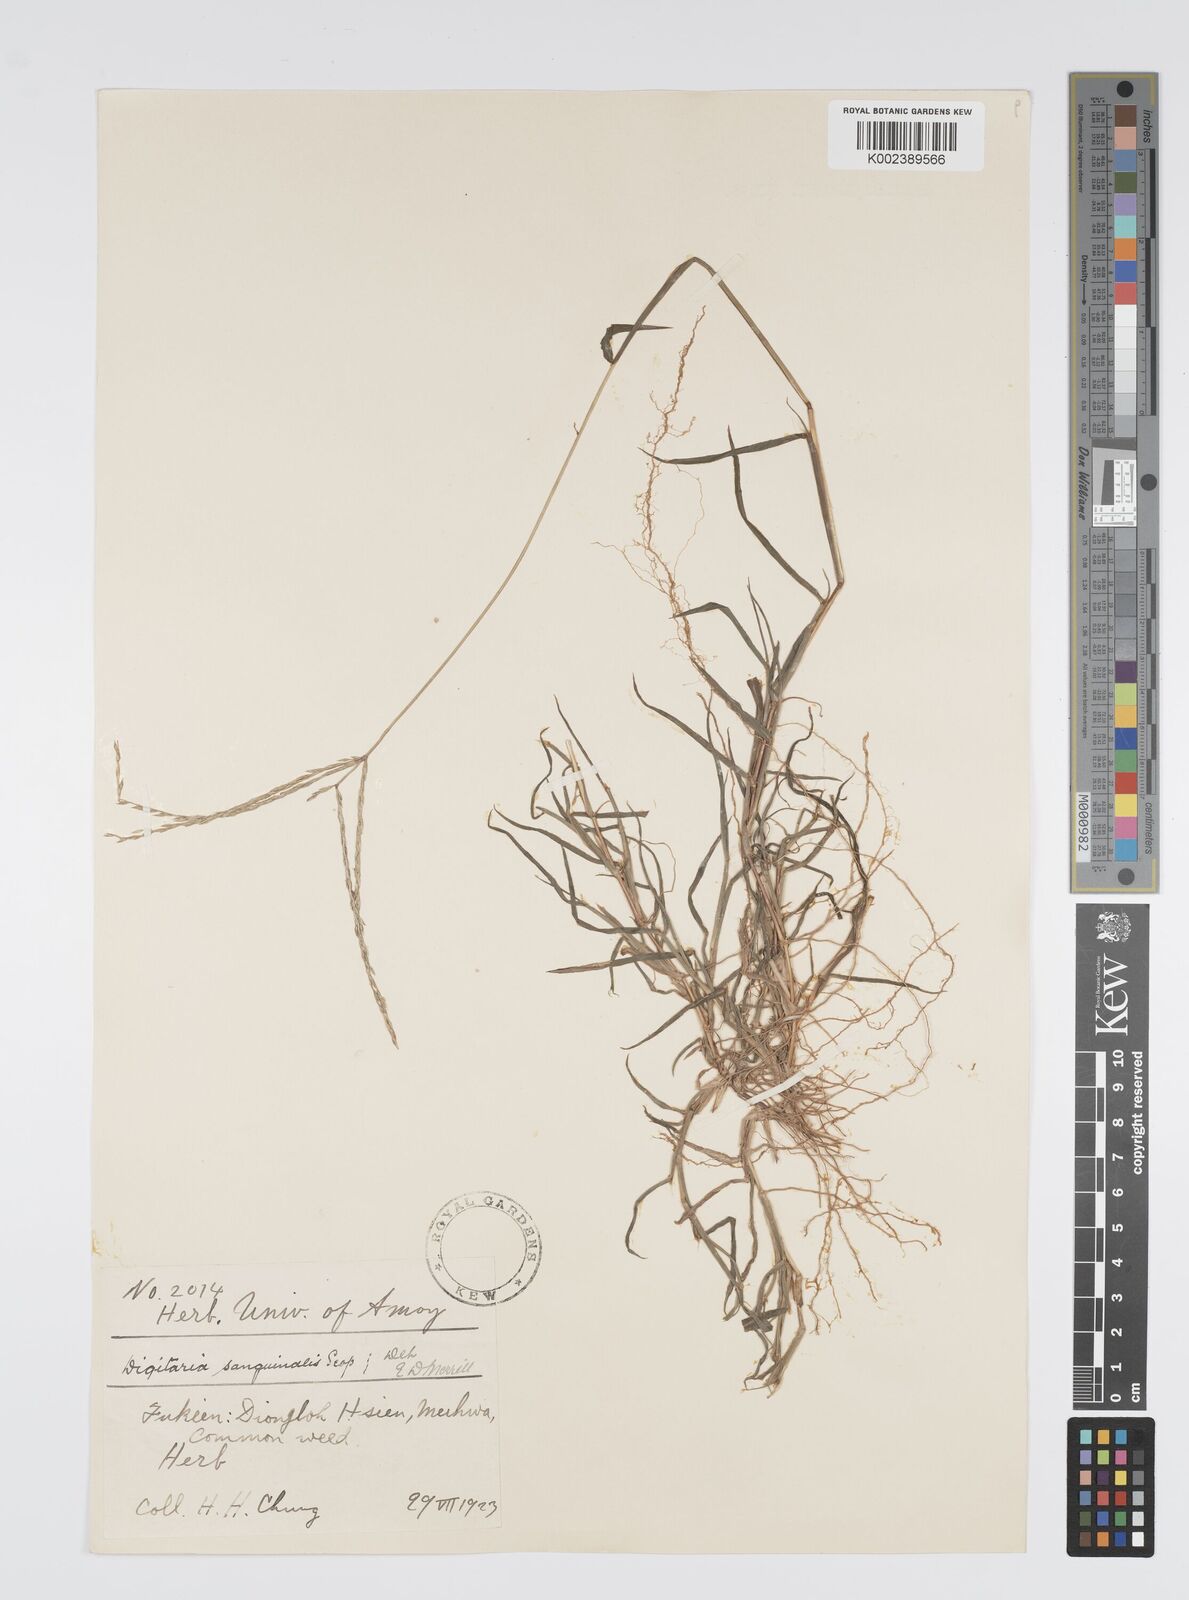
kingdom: Plantae
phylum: Tracheophyta
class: Liliopsida
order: Poales
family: Poaceae
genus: Digitaria
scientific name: Digitaria ciliaris
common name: Tropical finger-grass
